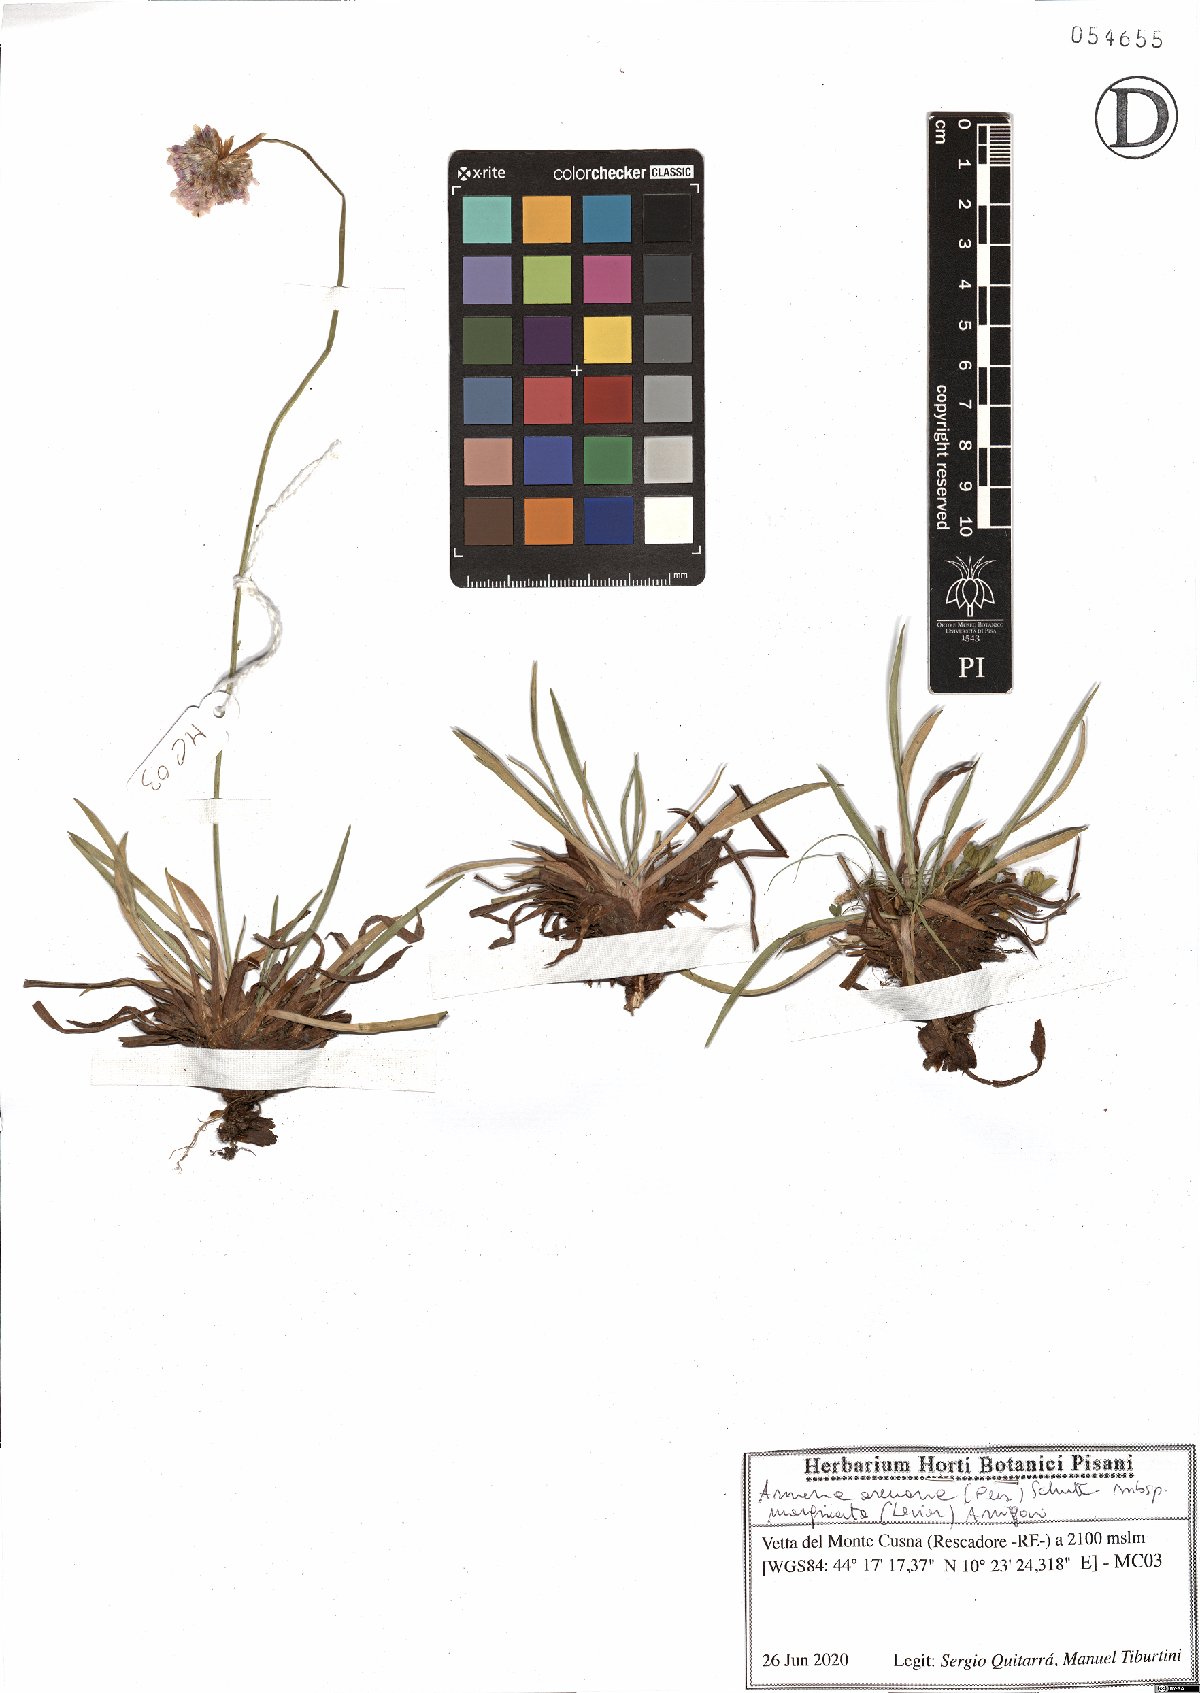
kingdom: Plantae
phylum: Tracheophyta
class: Magnoliopsida
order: Caryophyllales
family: Plumbaginaceae
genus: Armeria
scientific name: Armeria arenaria
